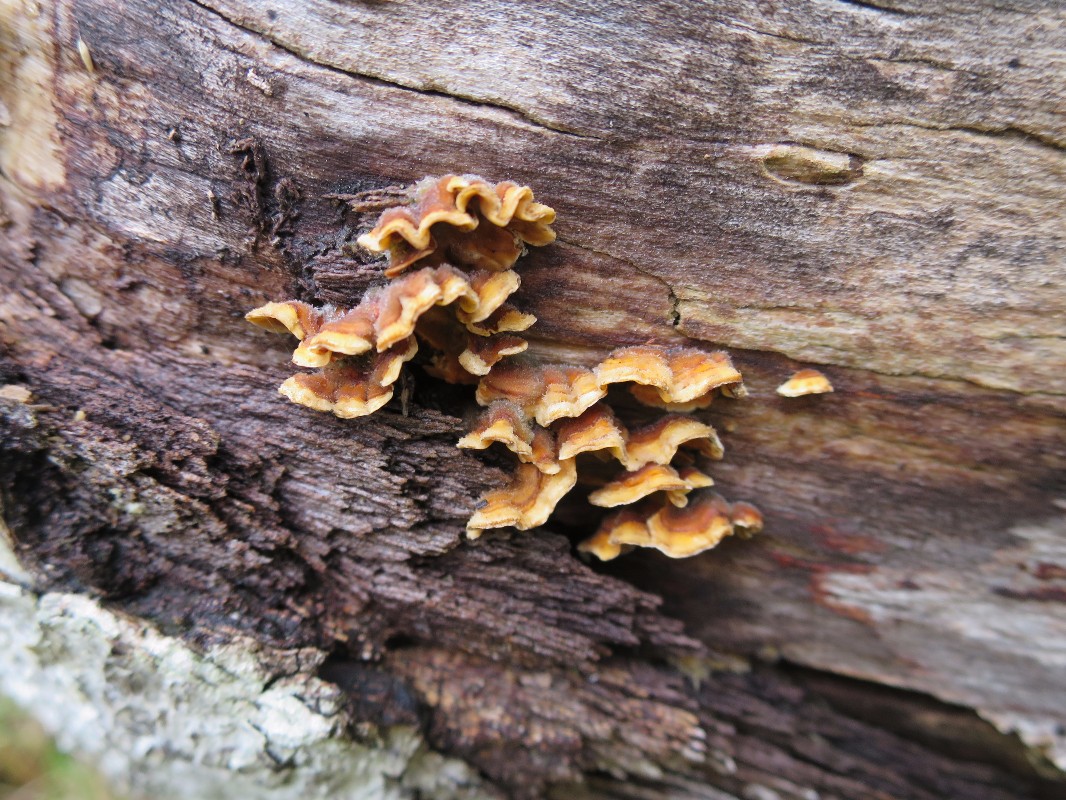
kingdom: Fungi
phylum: Basidiomycota
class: Agaricomycetes
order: Russulales
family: Stereaceae
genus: Stereum
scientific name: Stereum hirsutum
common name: håret lædersvamp
